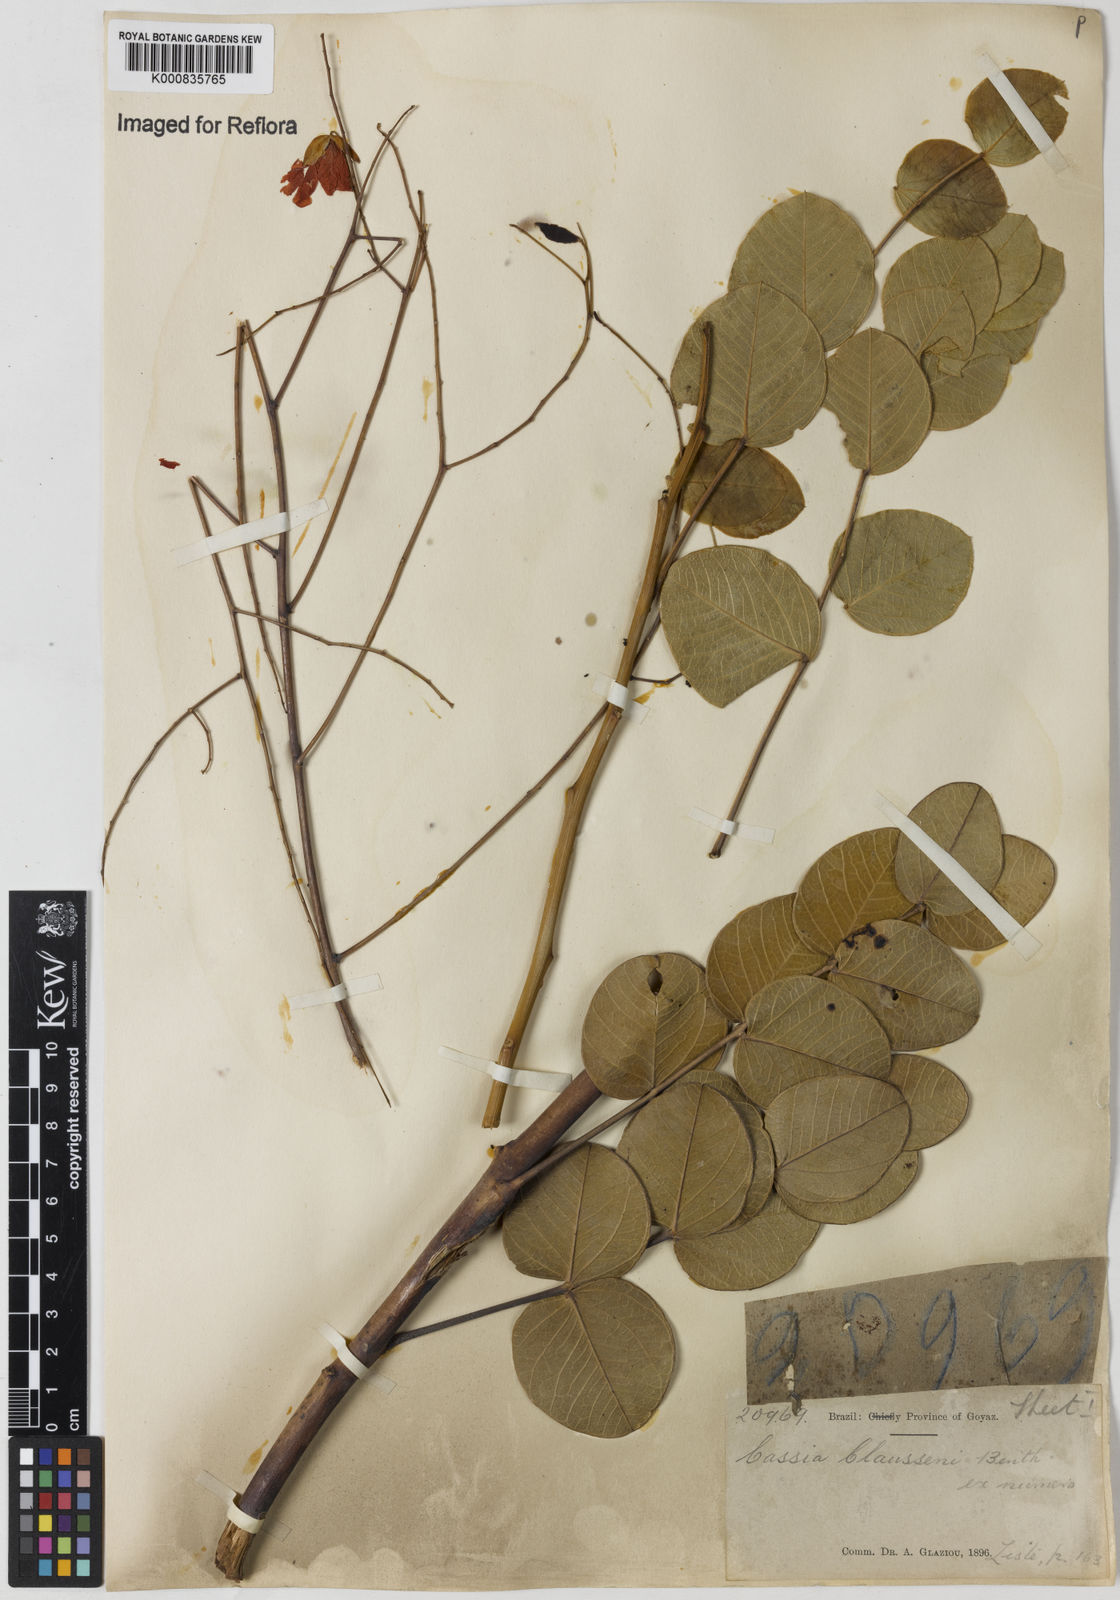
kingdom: Plantae
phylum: Tracheophyta
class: Magnoliopsida
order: Fabales
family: Fabaceae
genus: Chamaecrista
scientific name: Chamaecrista claussenii
